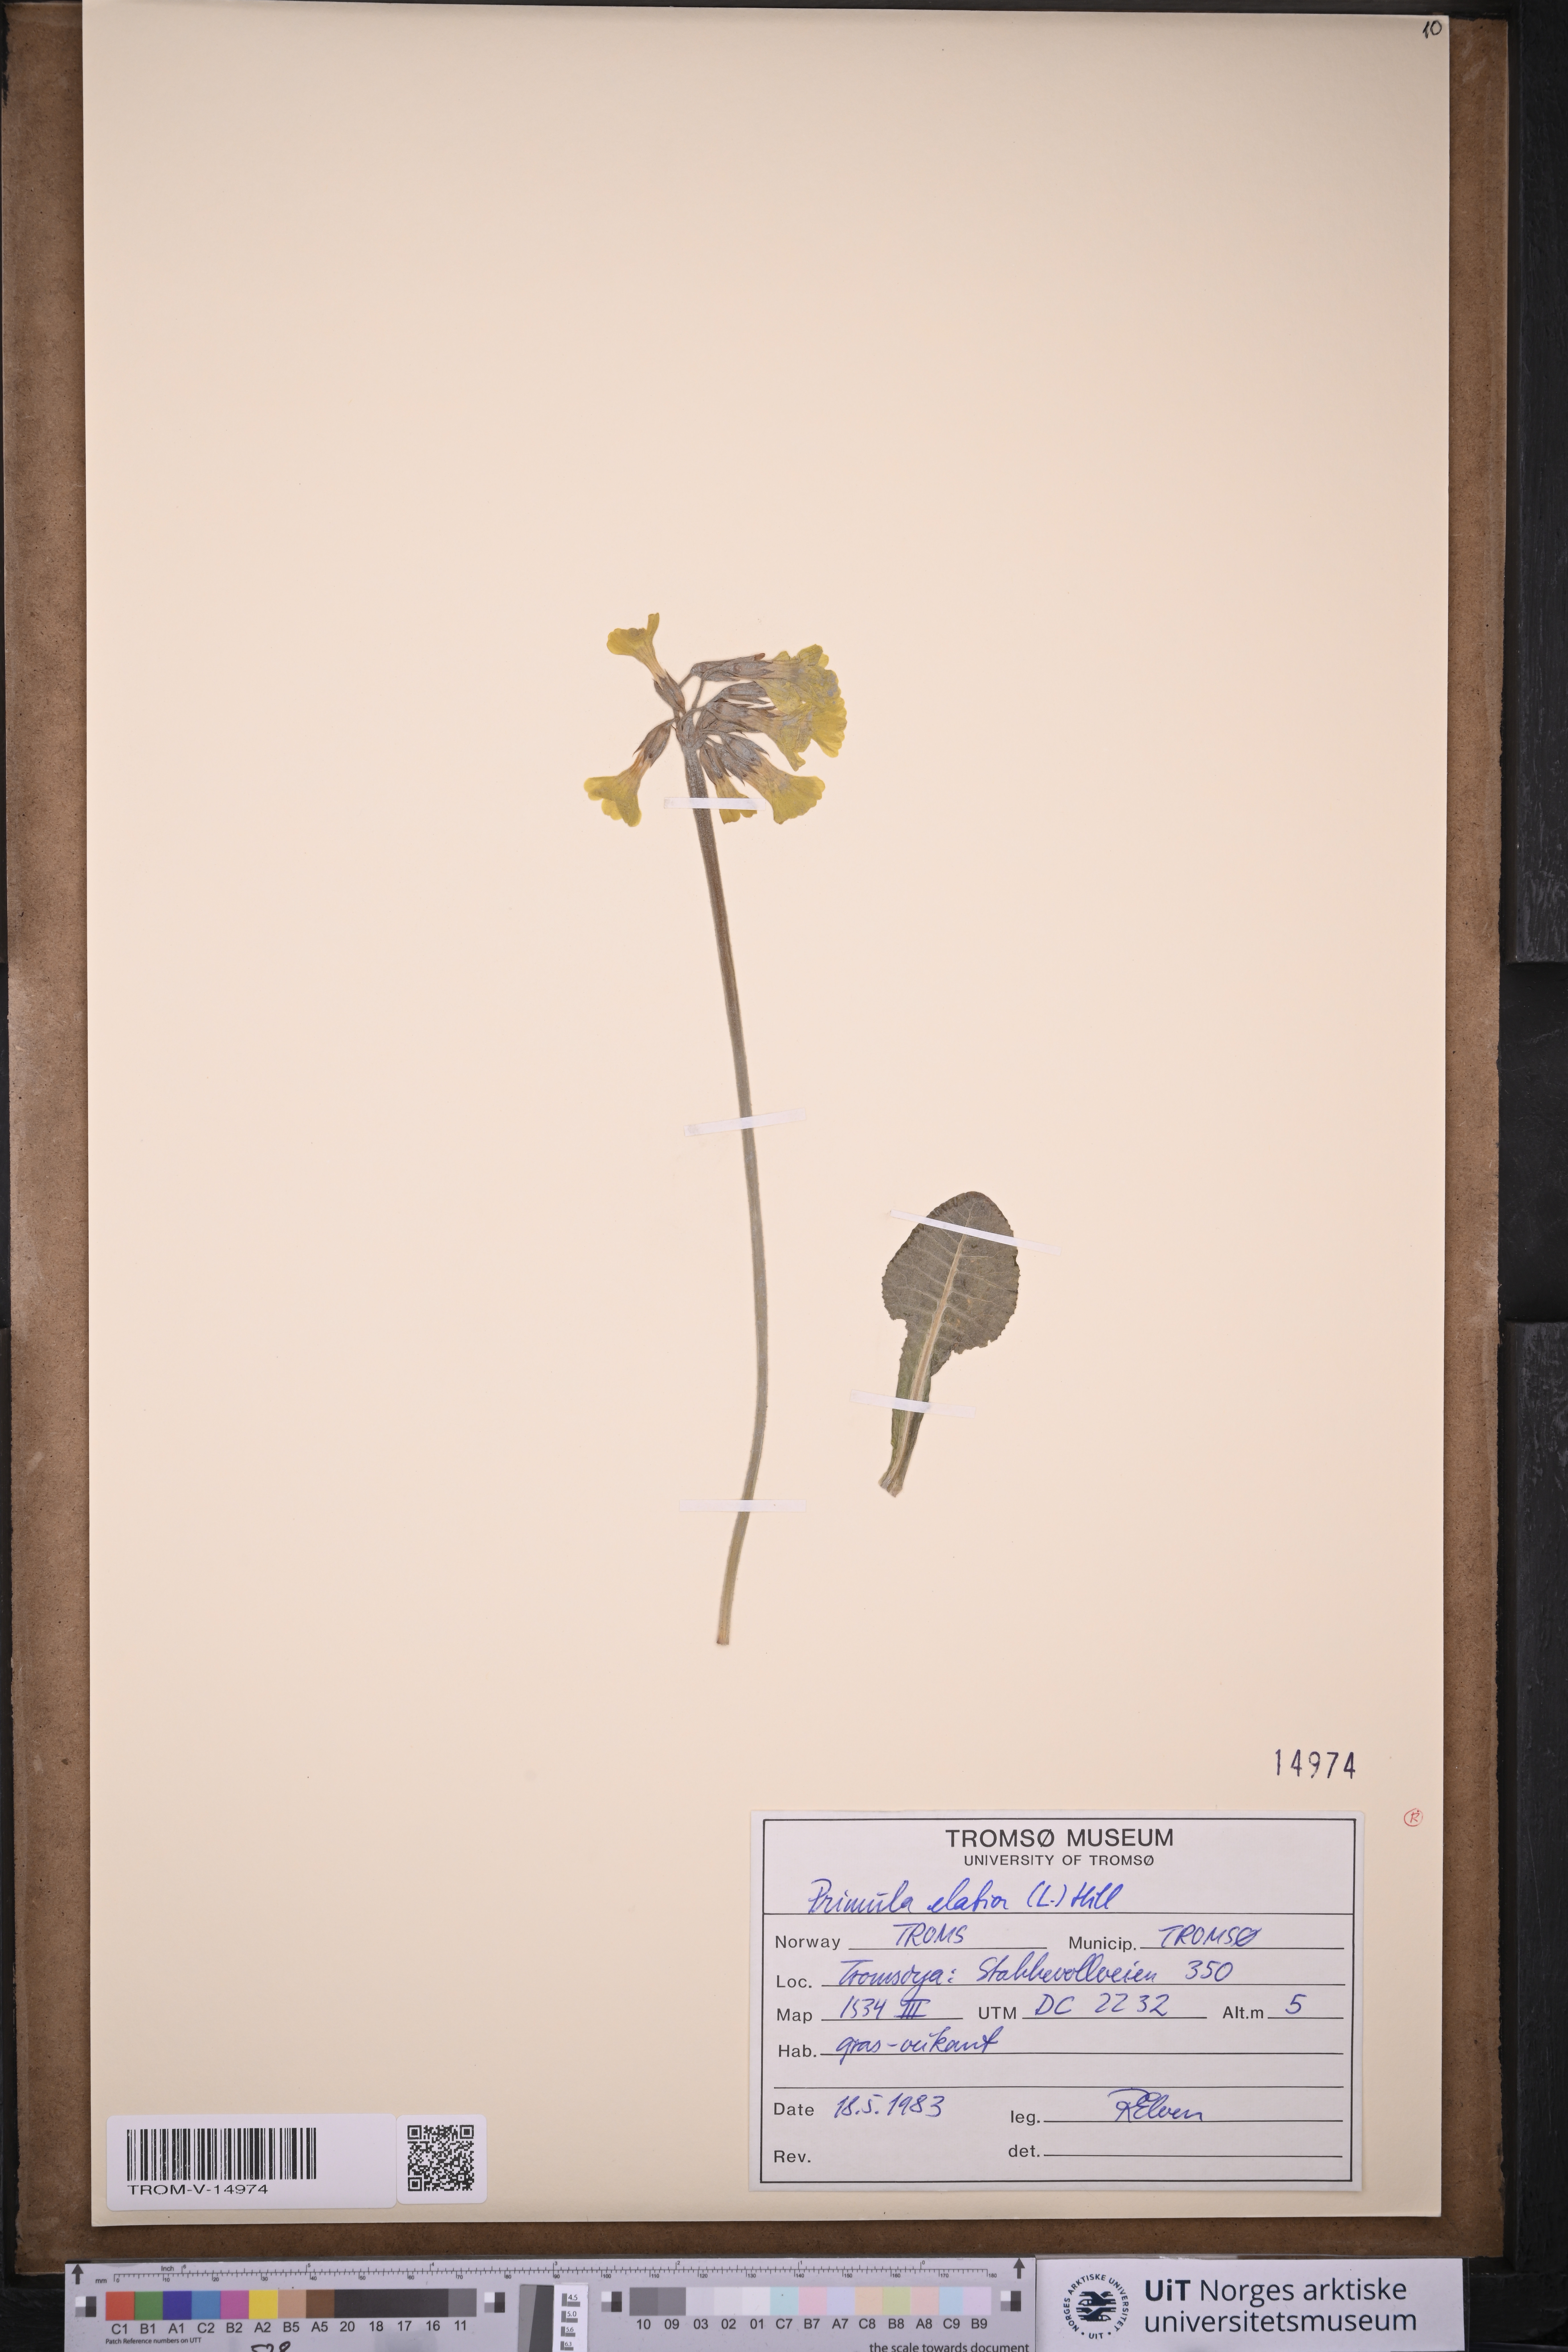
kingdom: Plantae
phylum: Tracheophyta
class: Magnoliopsida
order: Ericales
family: Primulaceae
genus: Primula
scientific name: Primula elatior
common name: Oxlip
